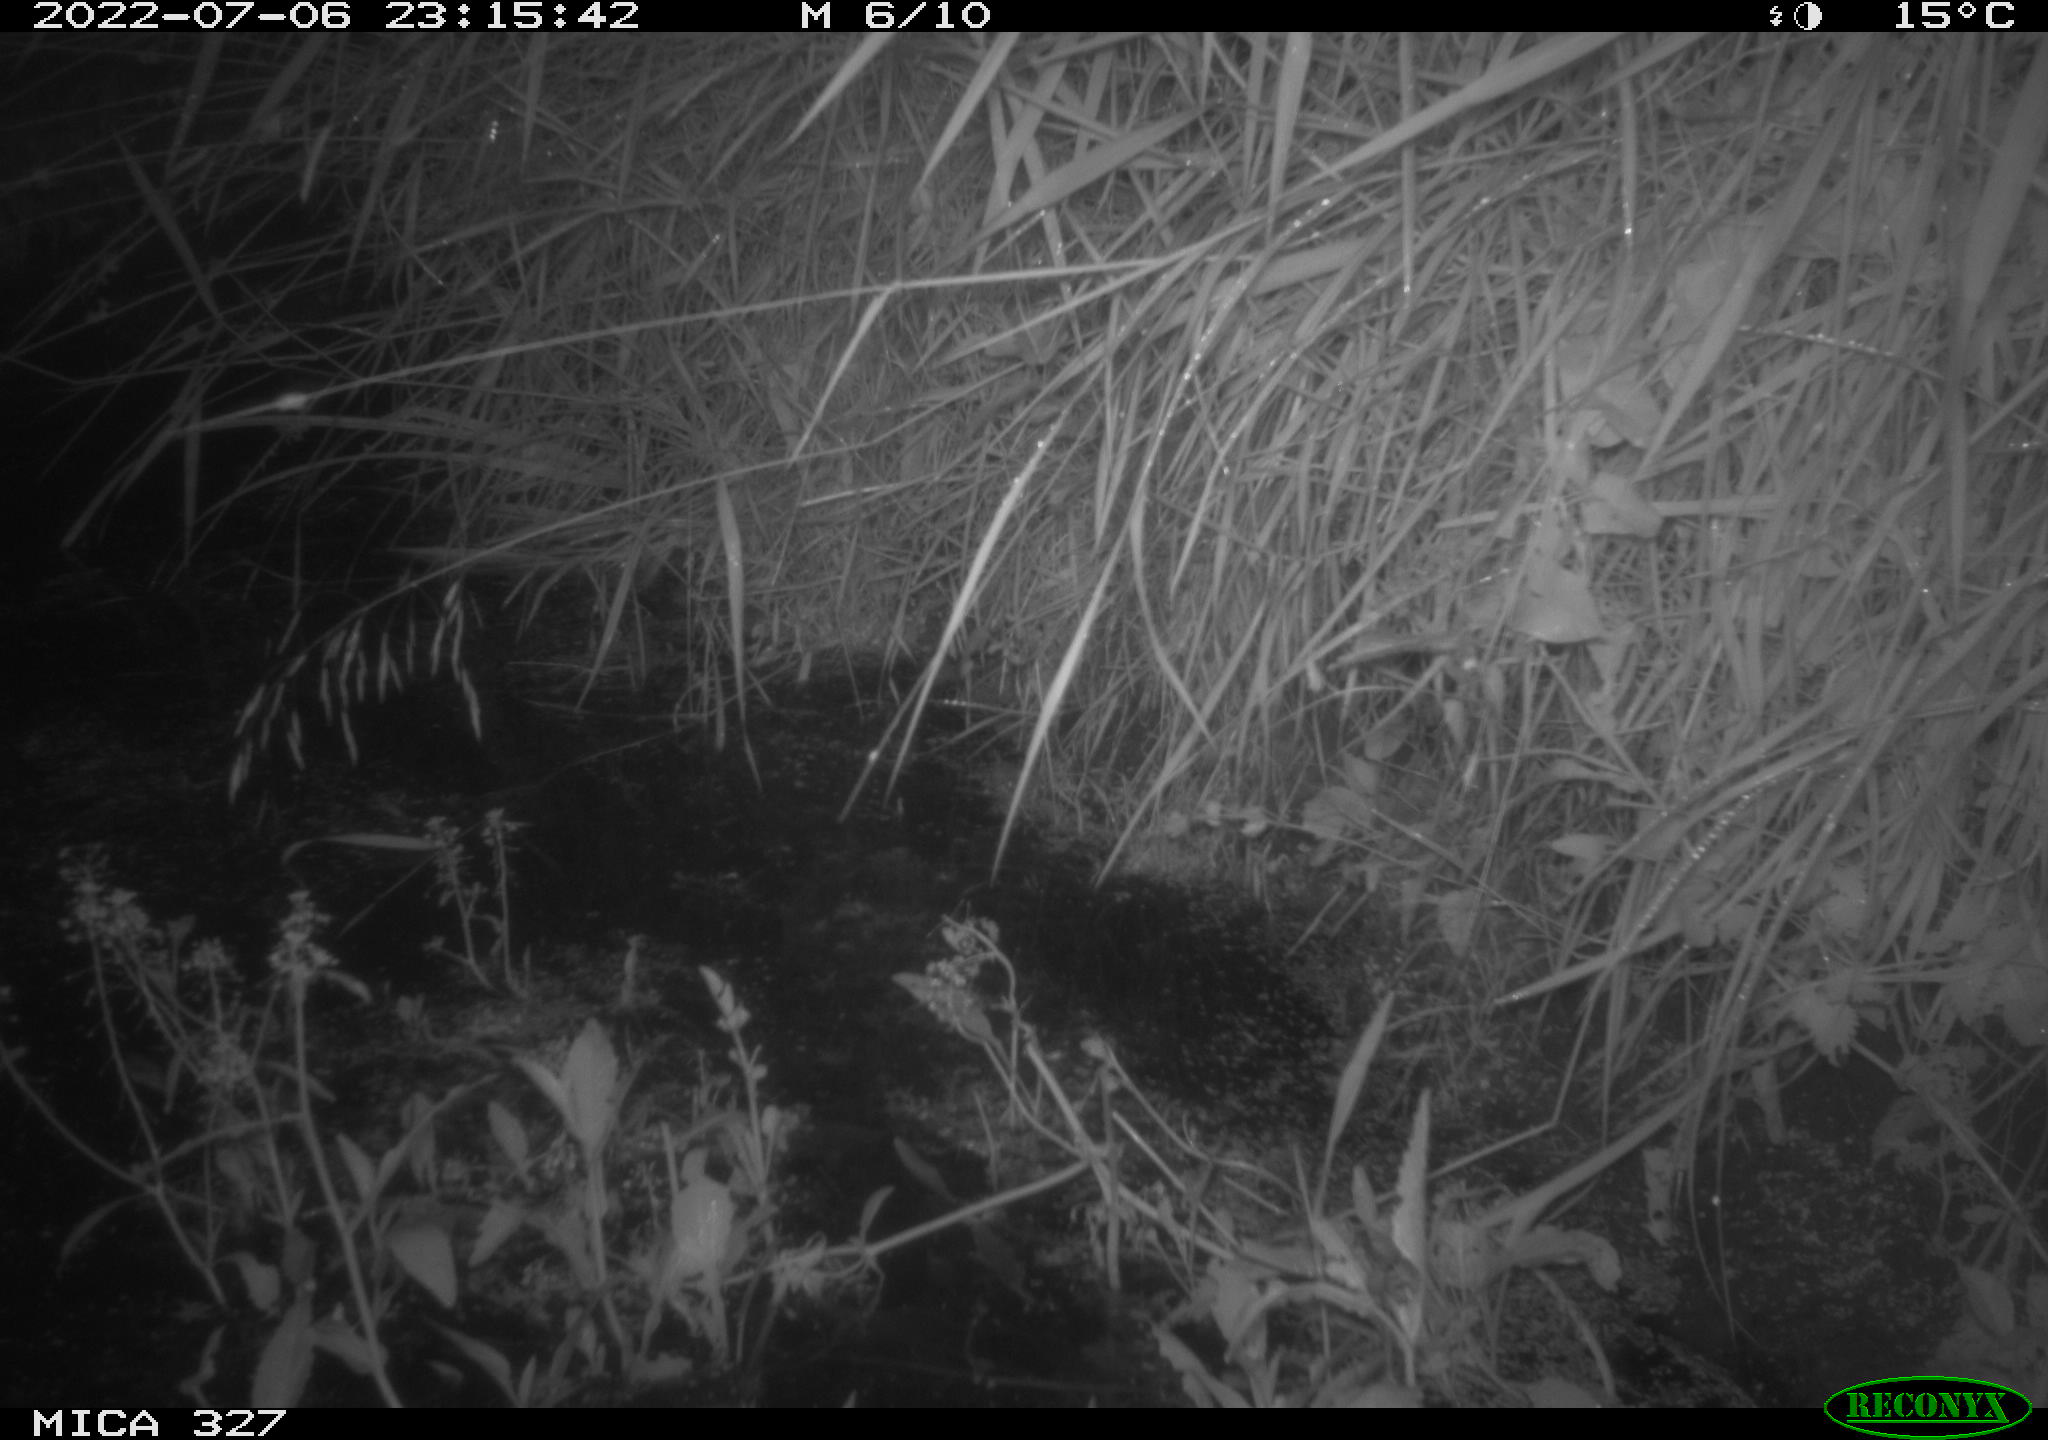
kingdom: Animalia
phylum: Chordata
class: Mammalia
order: Rodentia
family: Cricetidae
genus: Ondatra
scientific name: Ondatra zibethicus
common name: Muskrat
